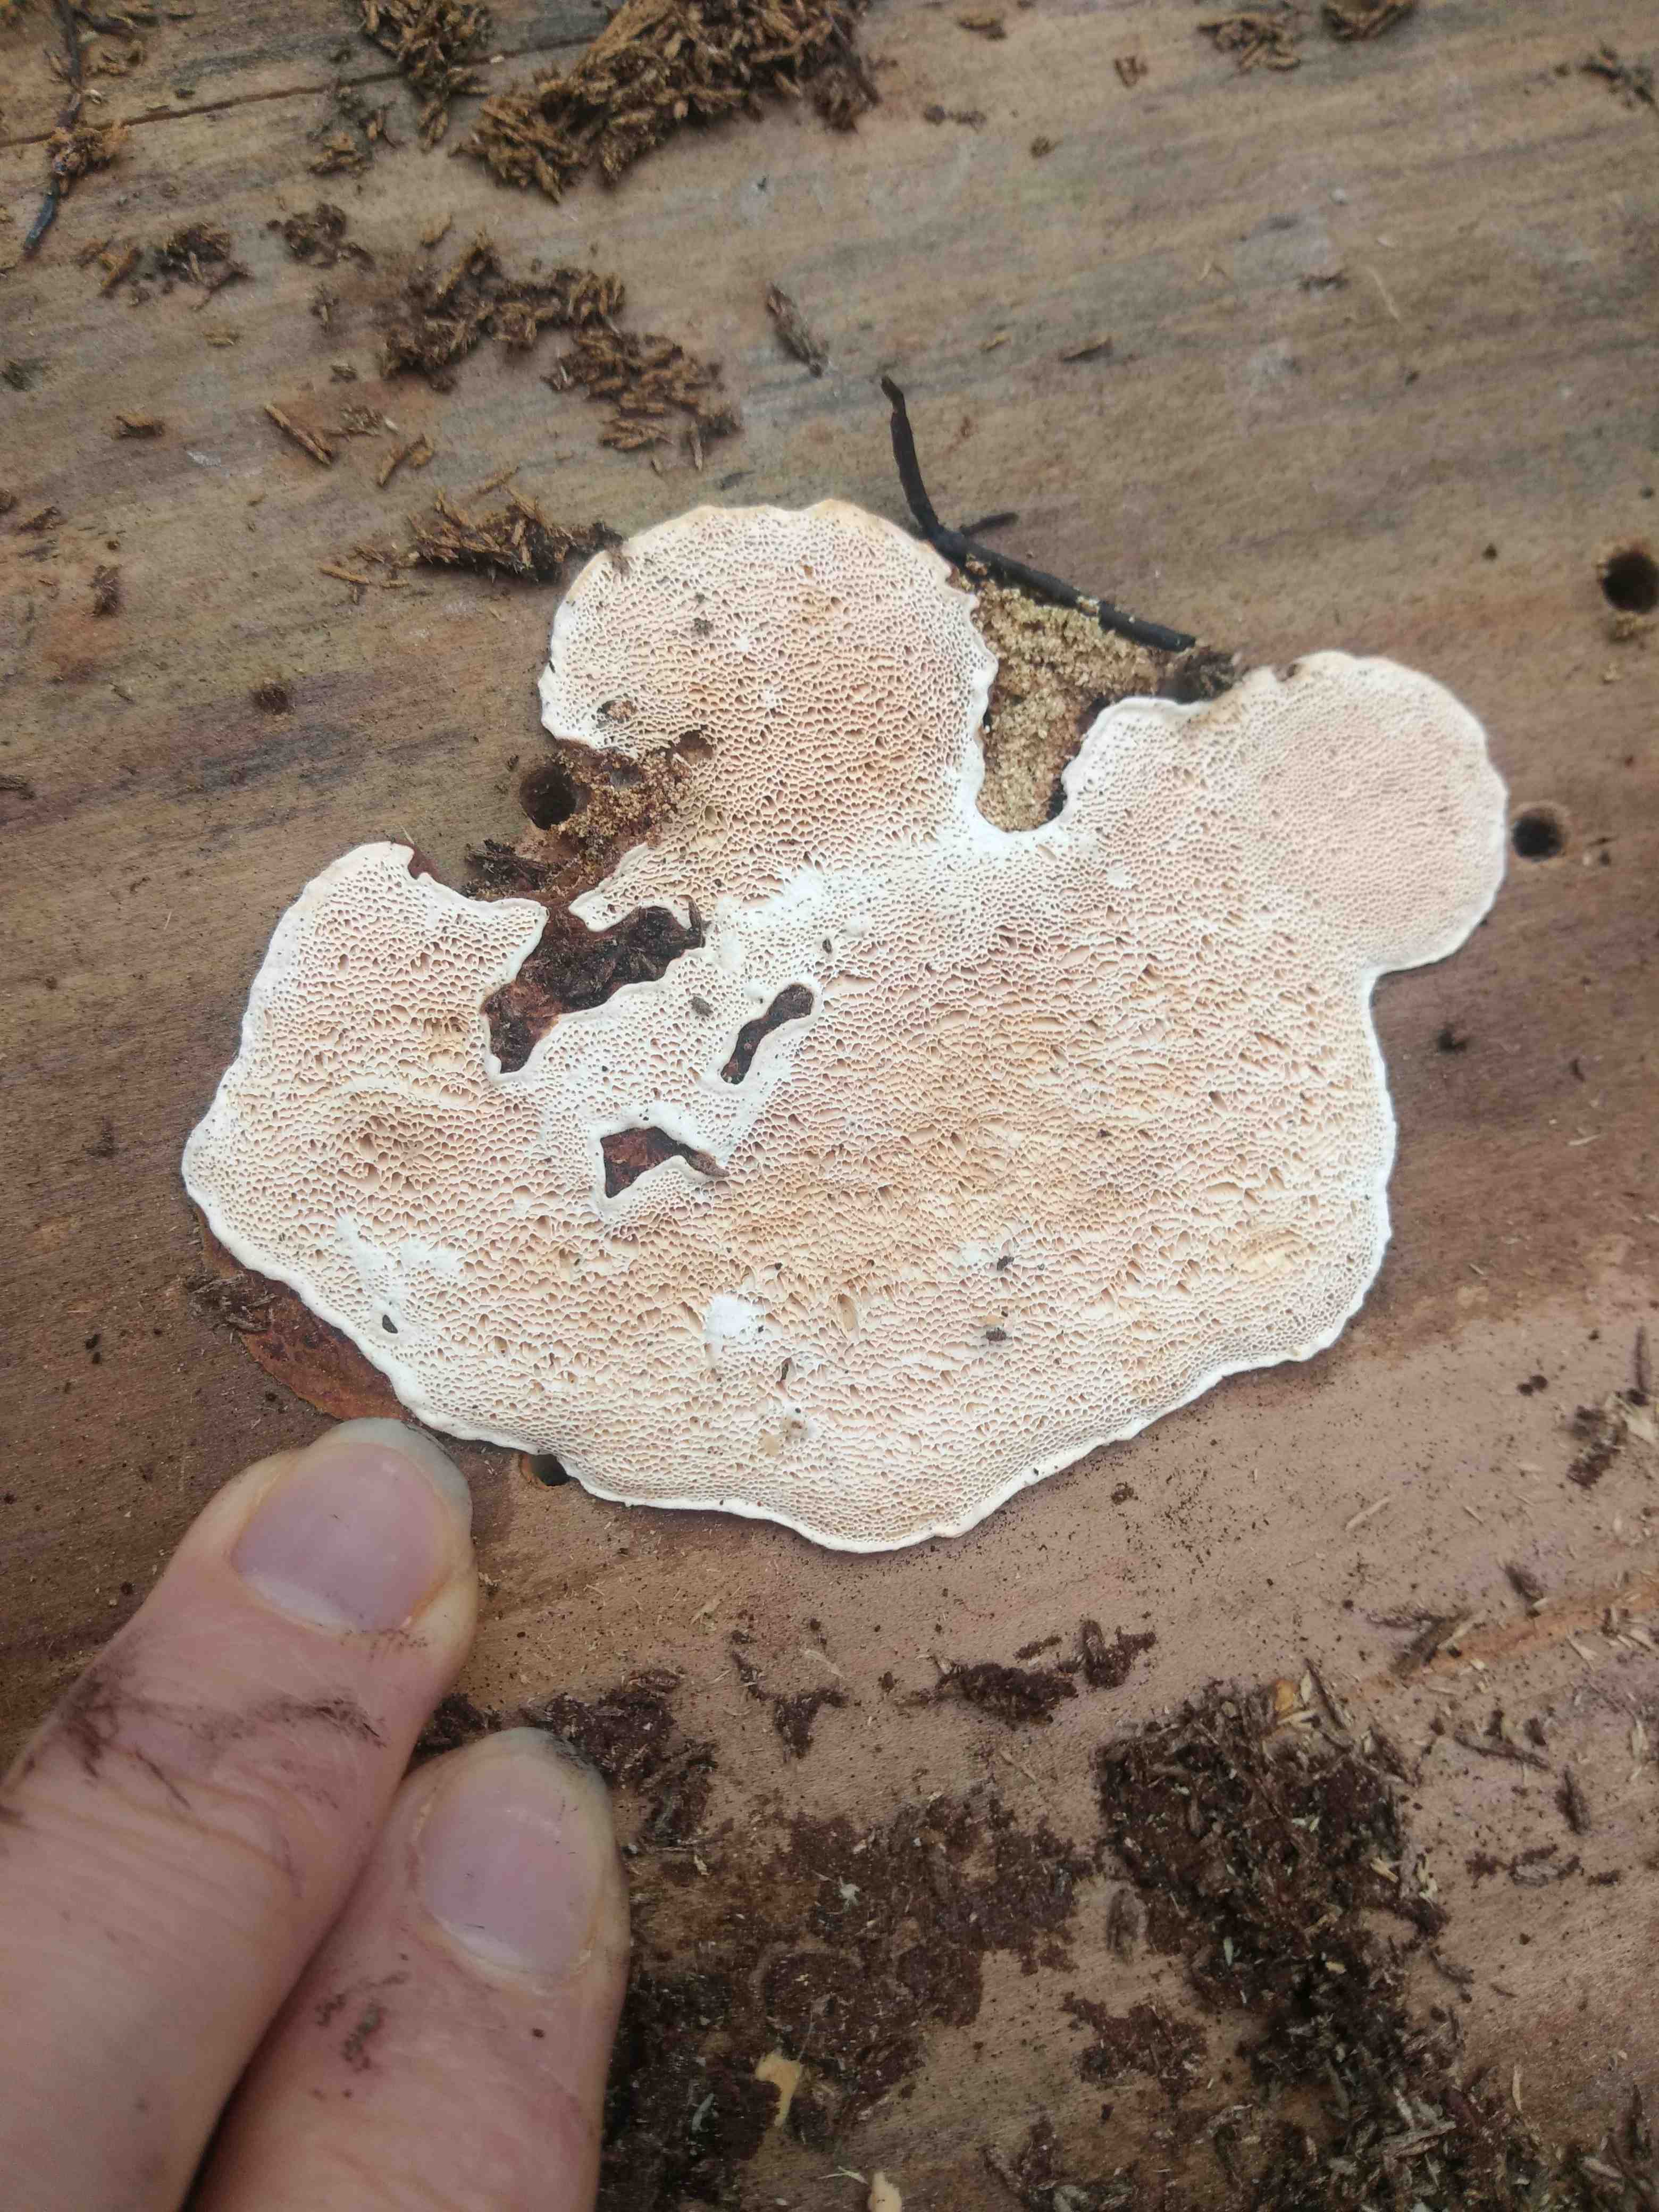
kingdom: Fungi
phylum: Basidiomycota
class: Agaricomycetes
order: Polyporales
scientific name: Polyporales
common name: poresvampordenen
